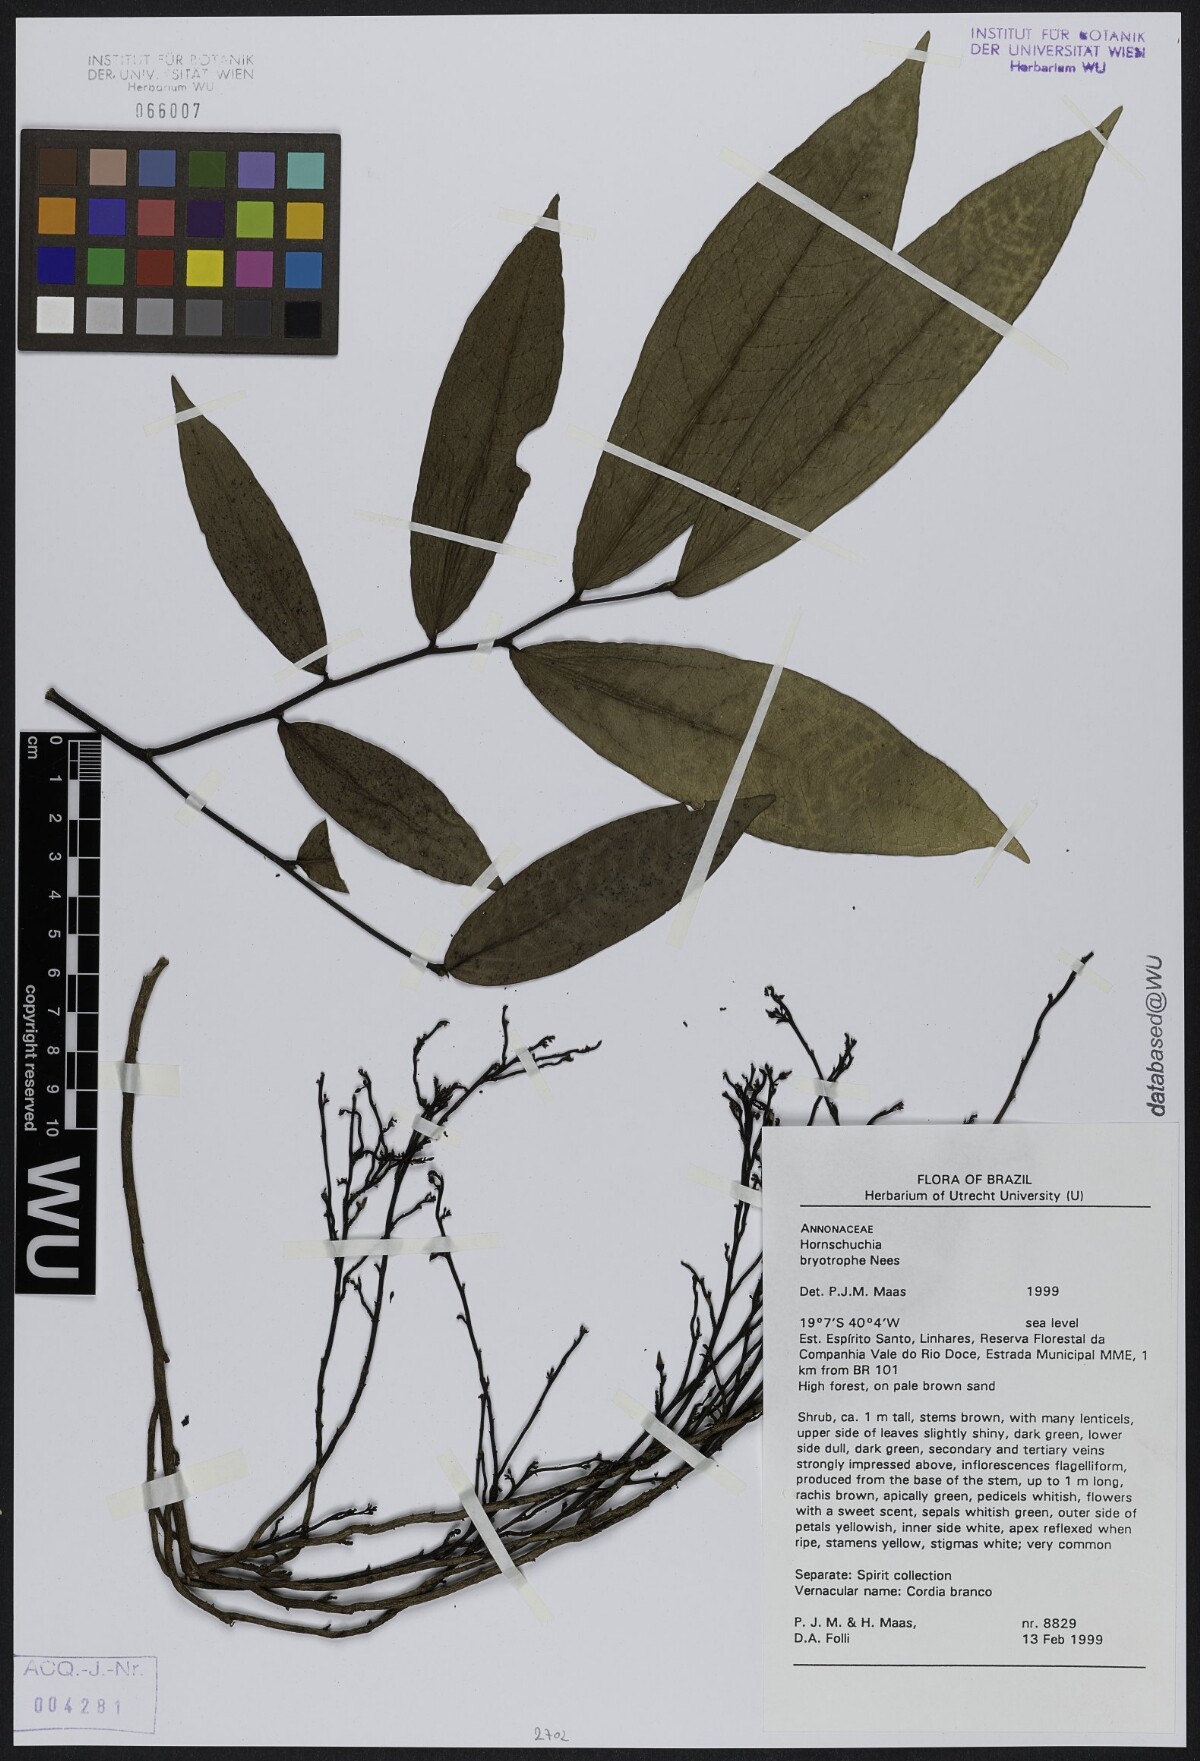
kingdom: Plantae
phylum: Tracheophyta
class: Magnoliopsida
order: Magnoliales
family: Annonaceae
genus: Hornschuchia
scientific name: Hornschuchia bryotrophe
